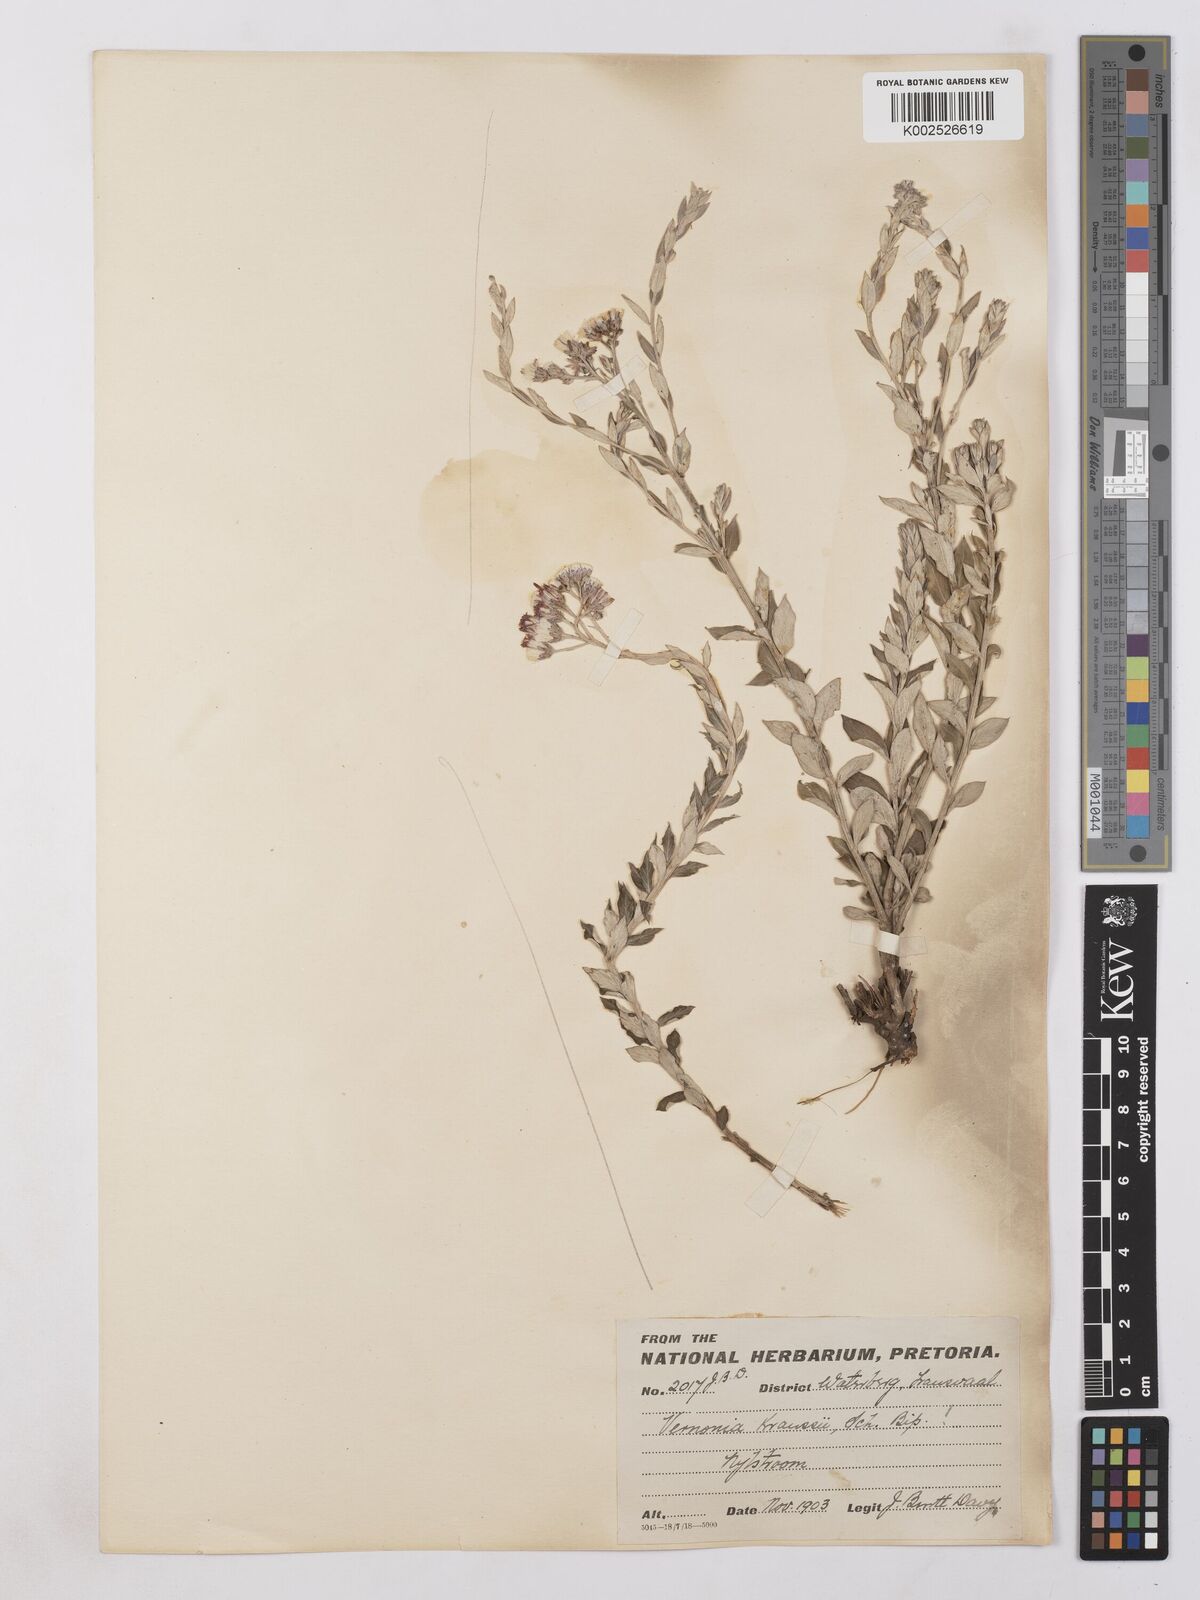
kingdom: Plantae
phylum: Tracheophyta
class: Magnoliopsida
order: Asterales
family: Asteraceae
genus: Hilliardiella
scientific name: Hilliardiella oligocephala
